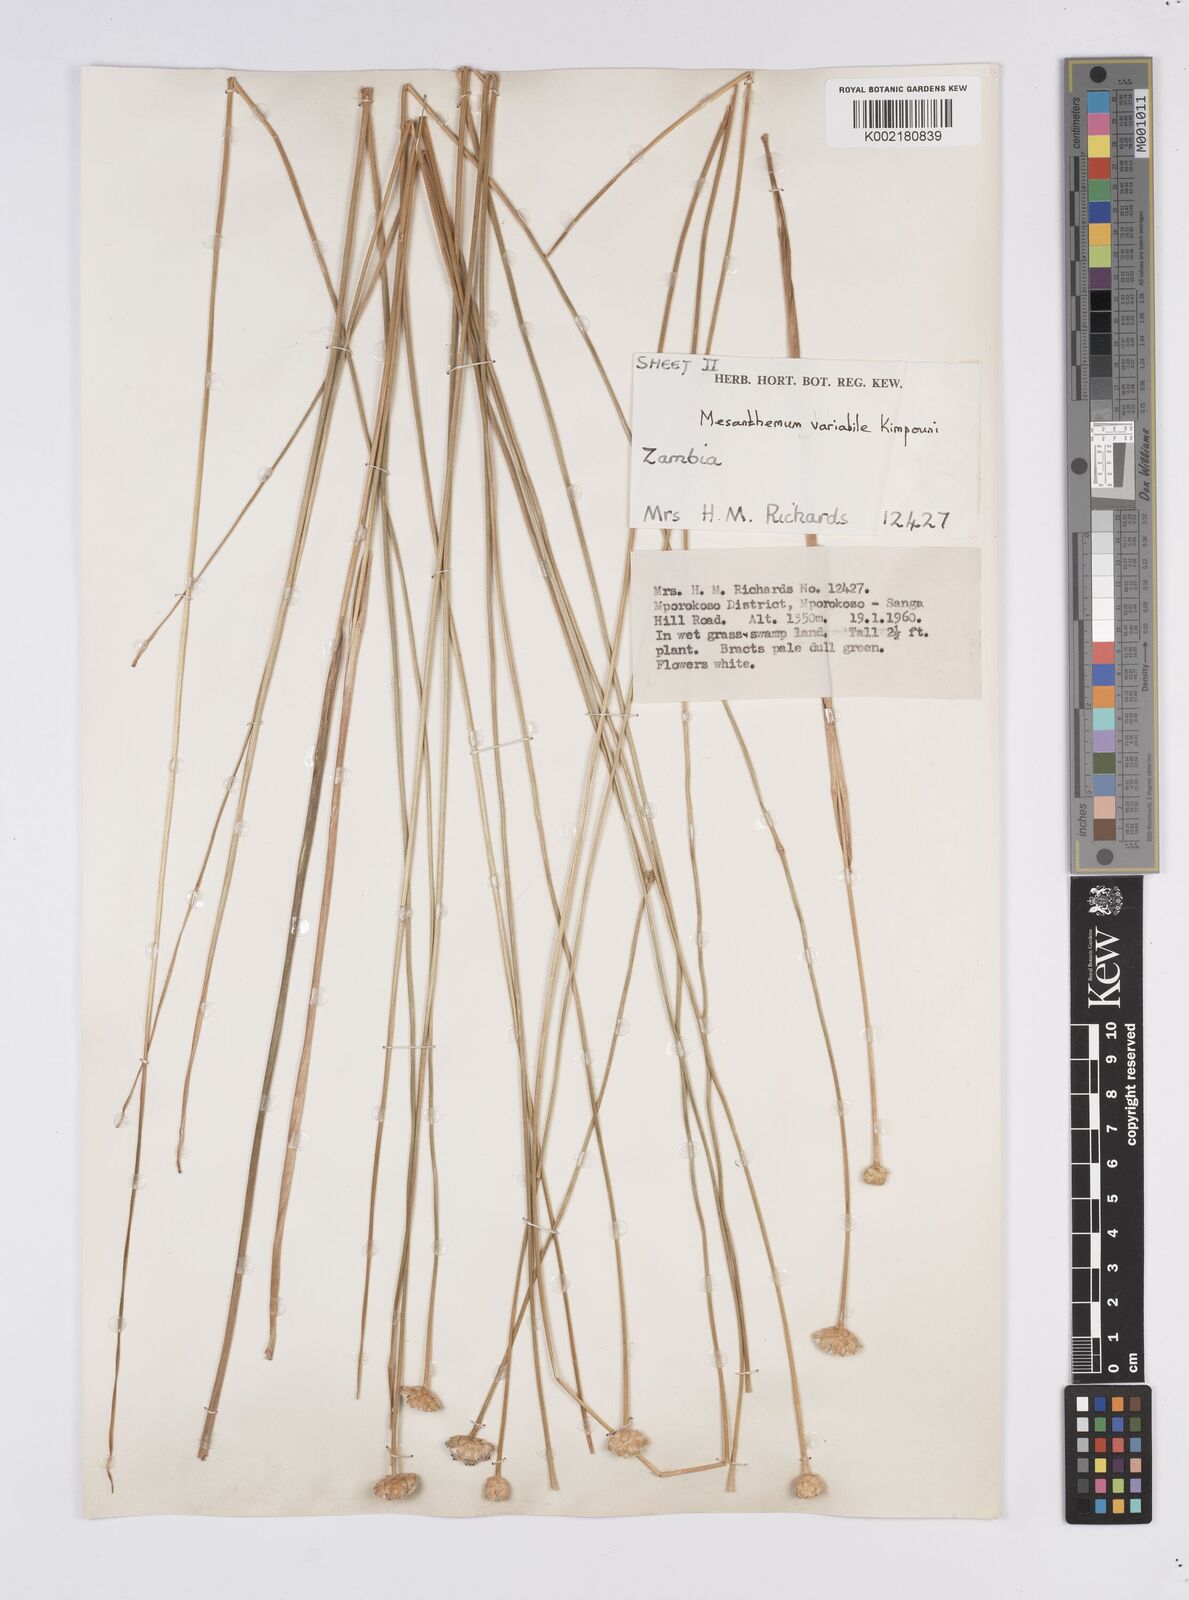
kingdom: Plantae
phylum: Tracheophyta
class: Liliopsida
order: Poales
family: Eriocaulaceae
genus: Mesanthemum
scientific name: Mesanthemum variabile
